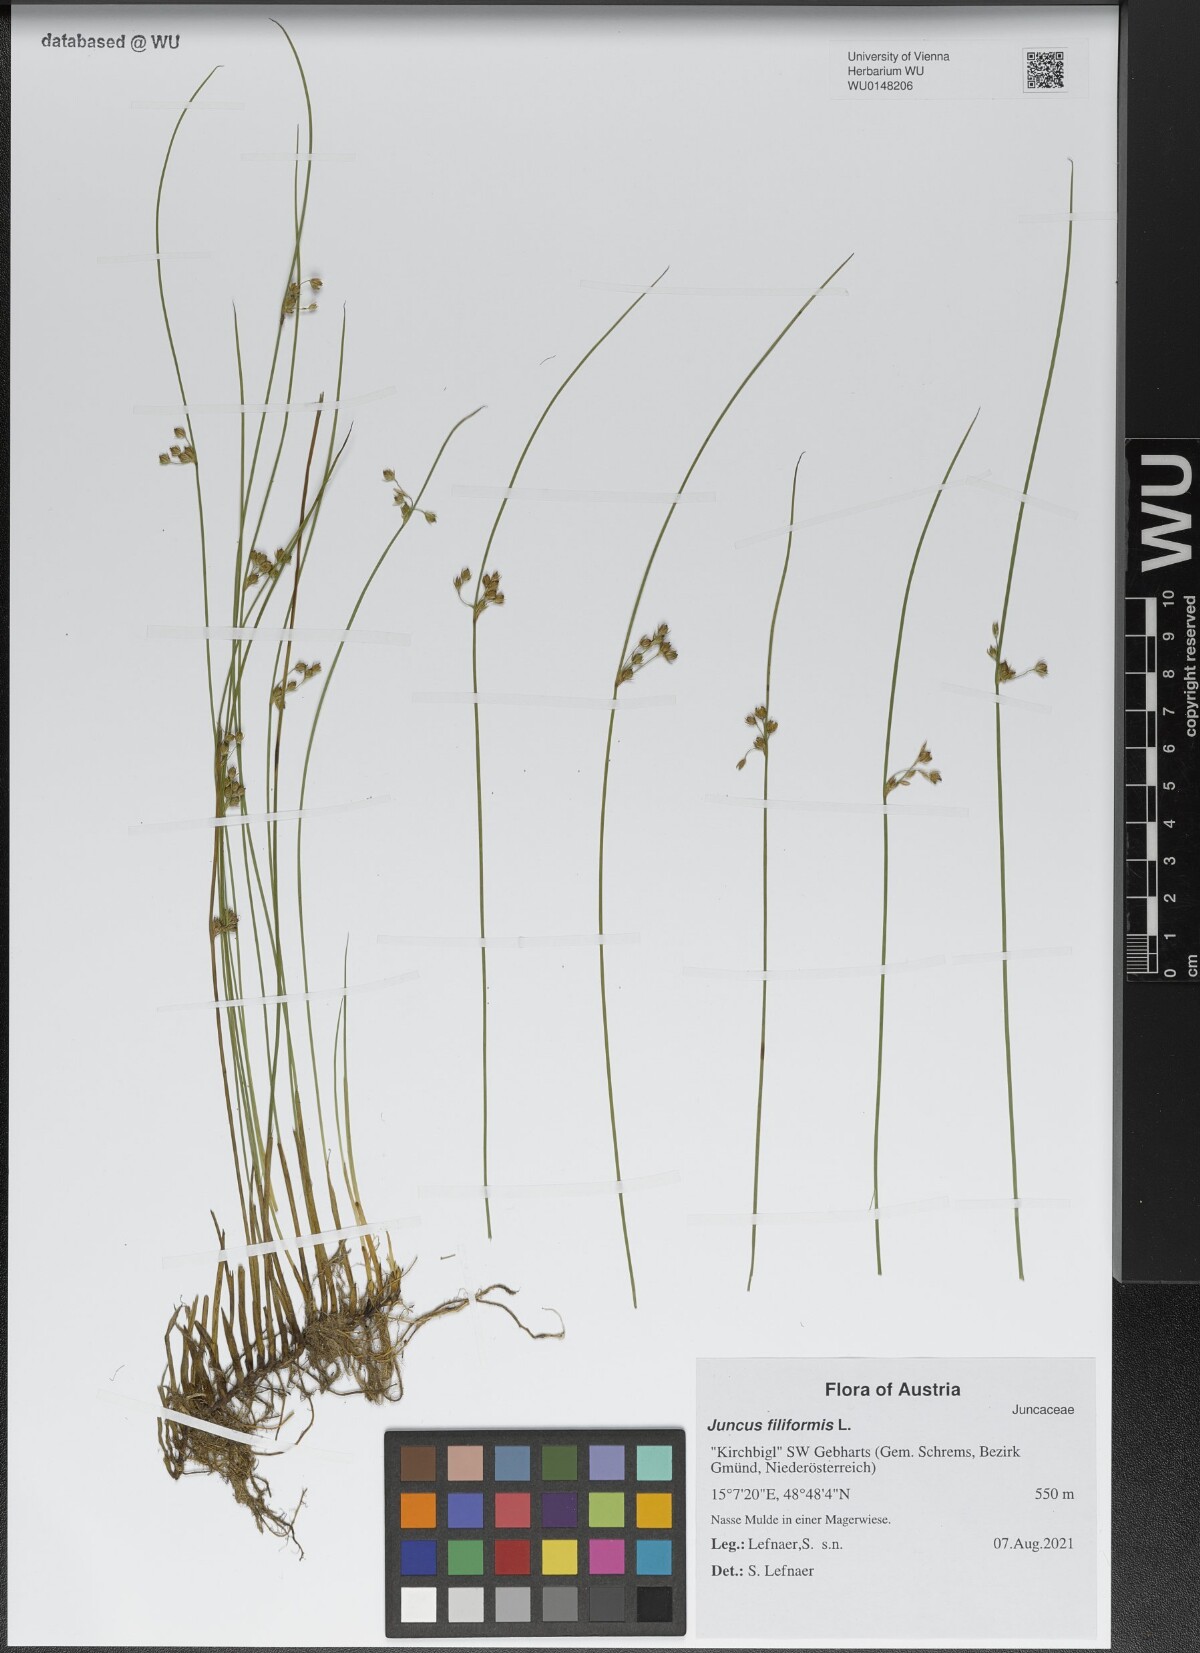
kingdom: Plantae
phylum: Tracheophyta
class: Liliopsida
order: Poales
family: Juncaceae
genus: Juncus
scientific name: Juncus filiformis
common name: Thread rush
